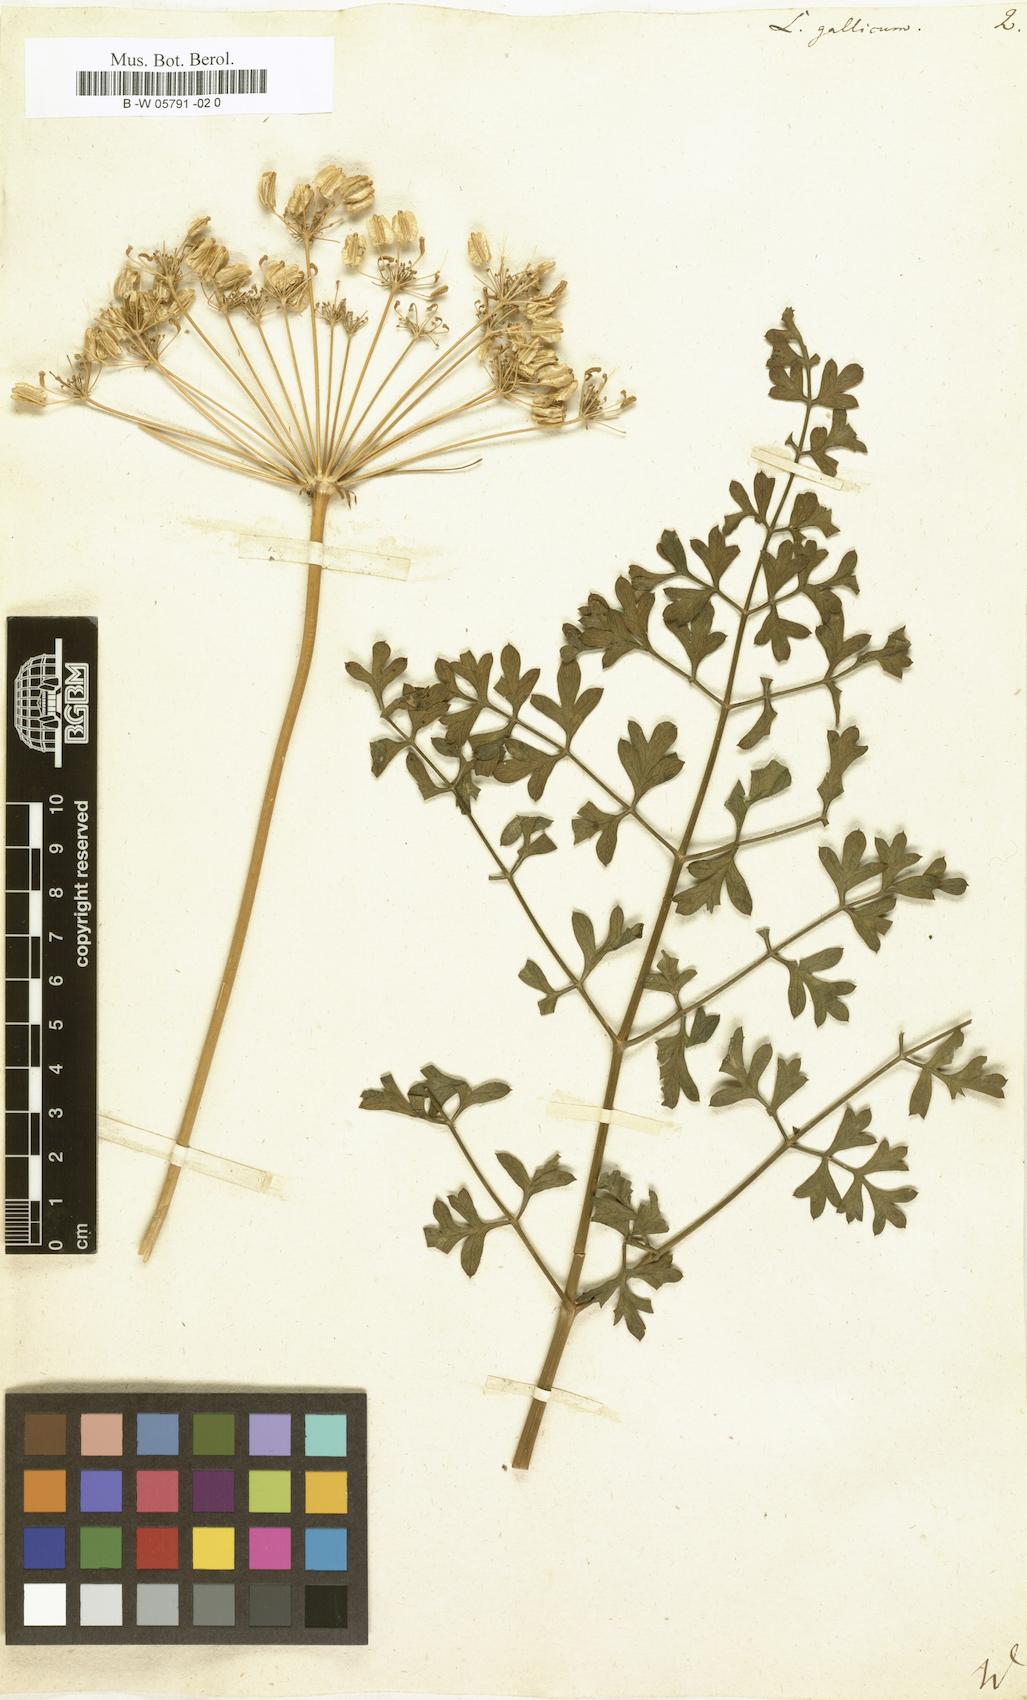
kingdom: Plantae
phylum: Tracheophyta
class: Magnoliopsida
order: Apiales
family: Apiaceae
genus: Laserpitium
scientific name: Laserpitium gallicum
